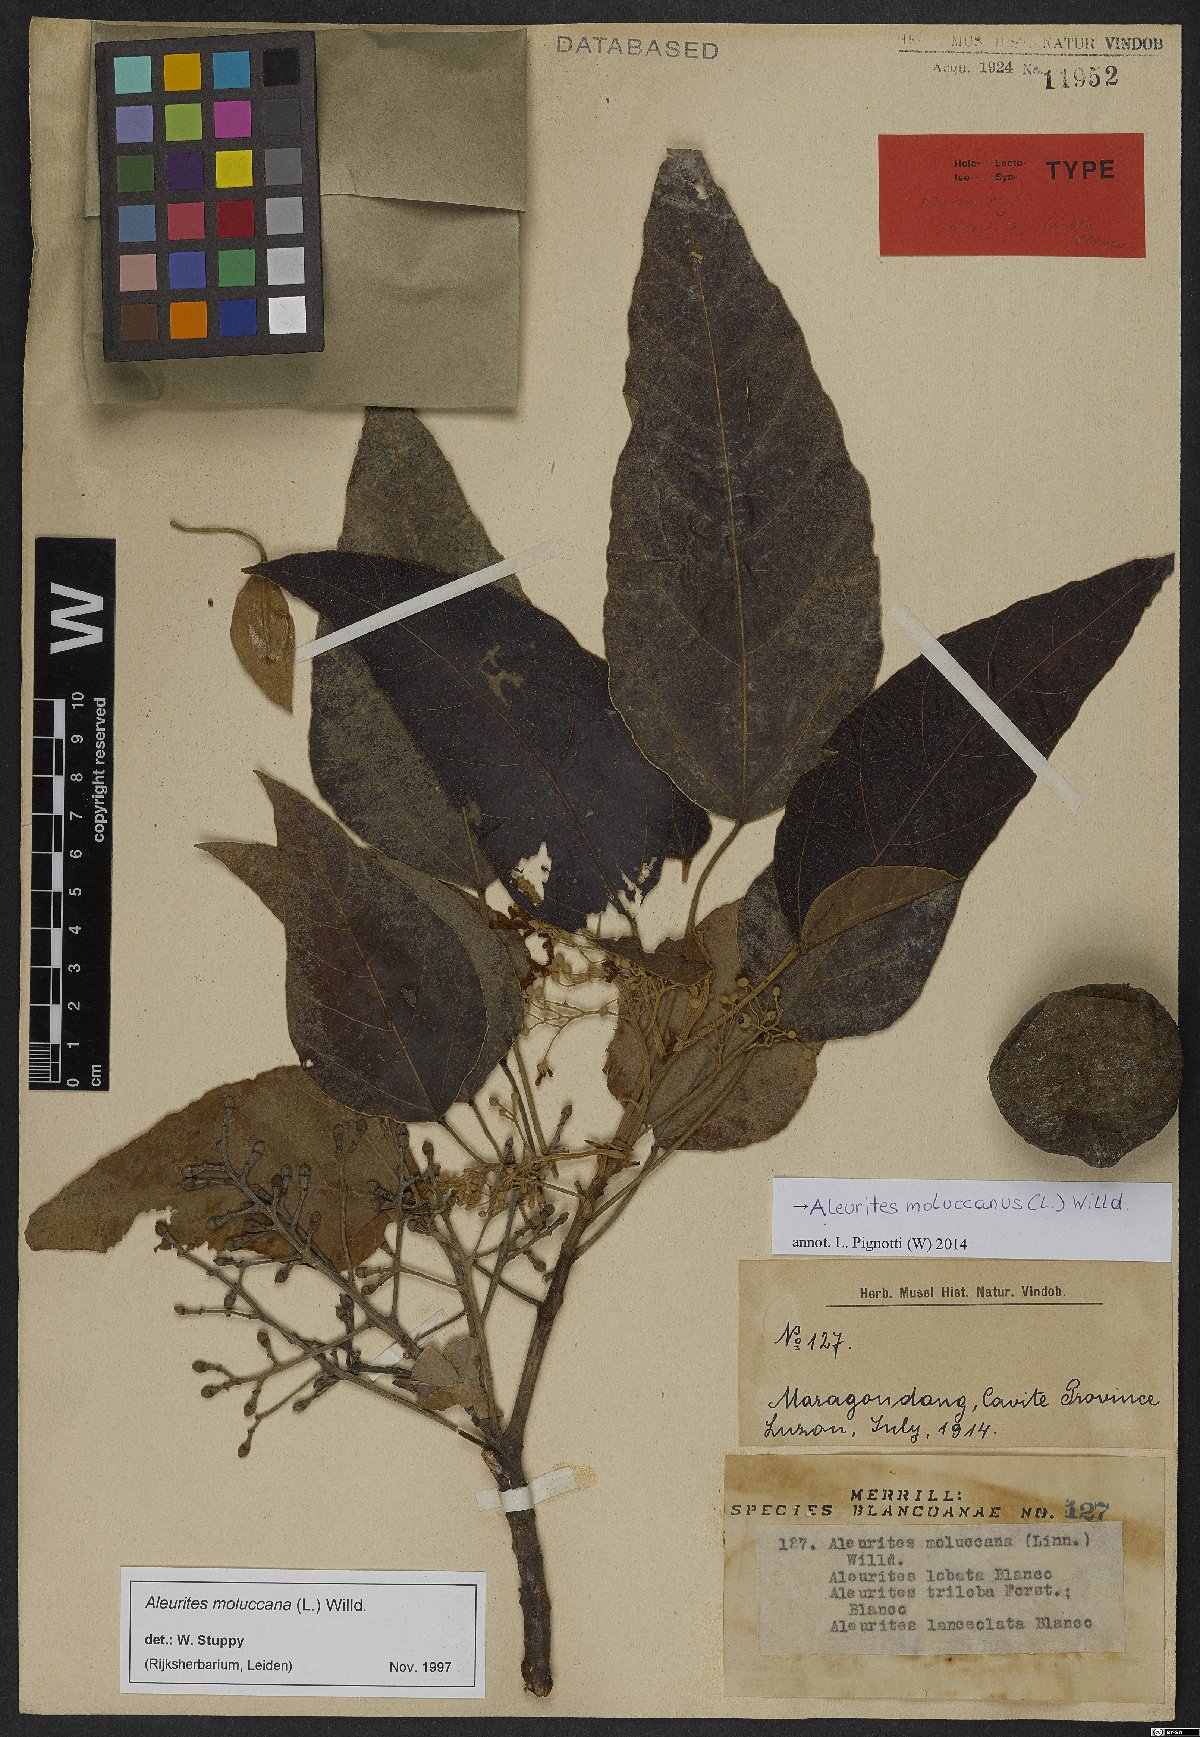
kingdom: Plantae
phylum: Tracheophyta
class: Magnoliopsida
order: Malpighiales
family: Euphorbiaceae
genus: Aleurites
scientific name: Aleurites moluccanus
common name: Candlenut tree
